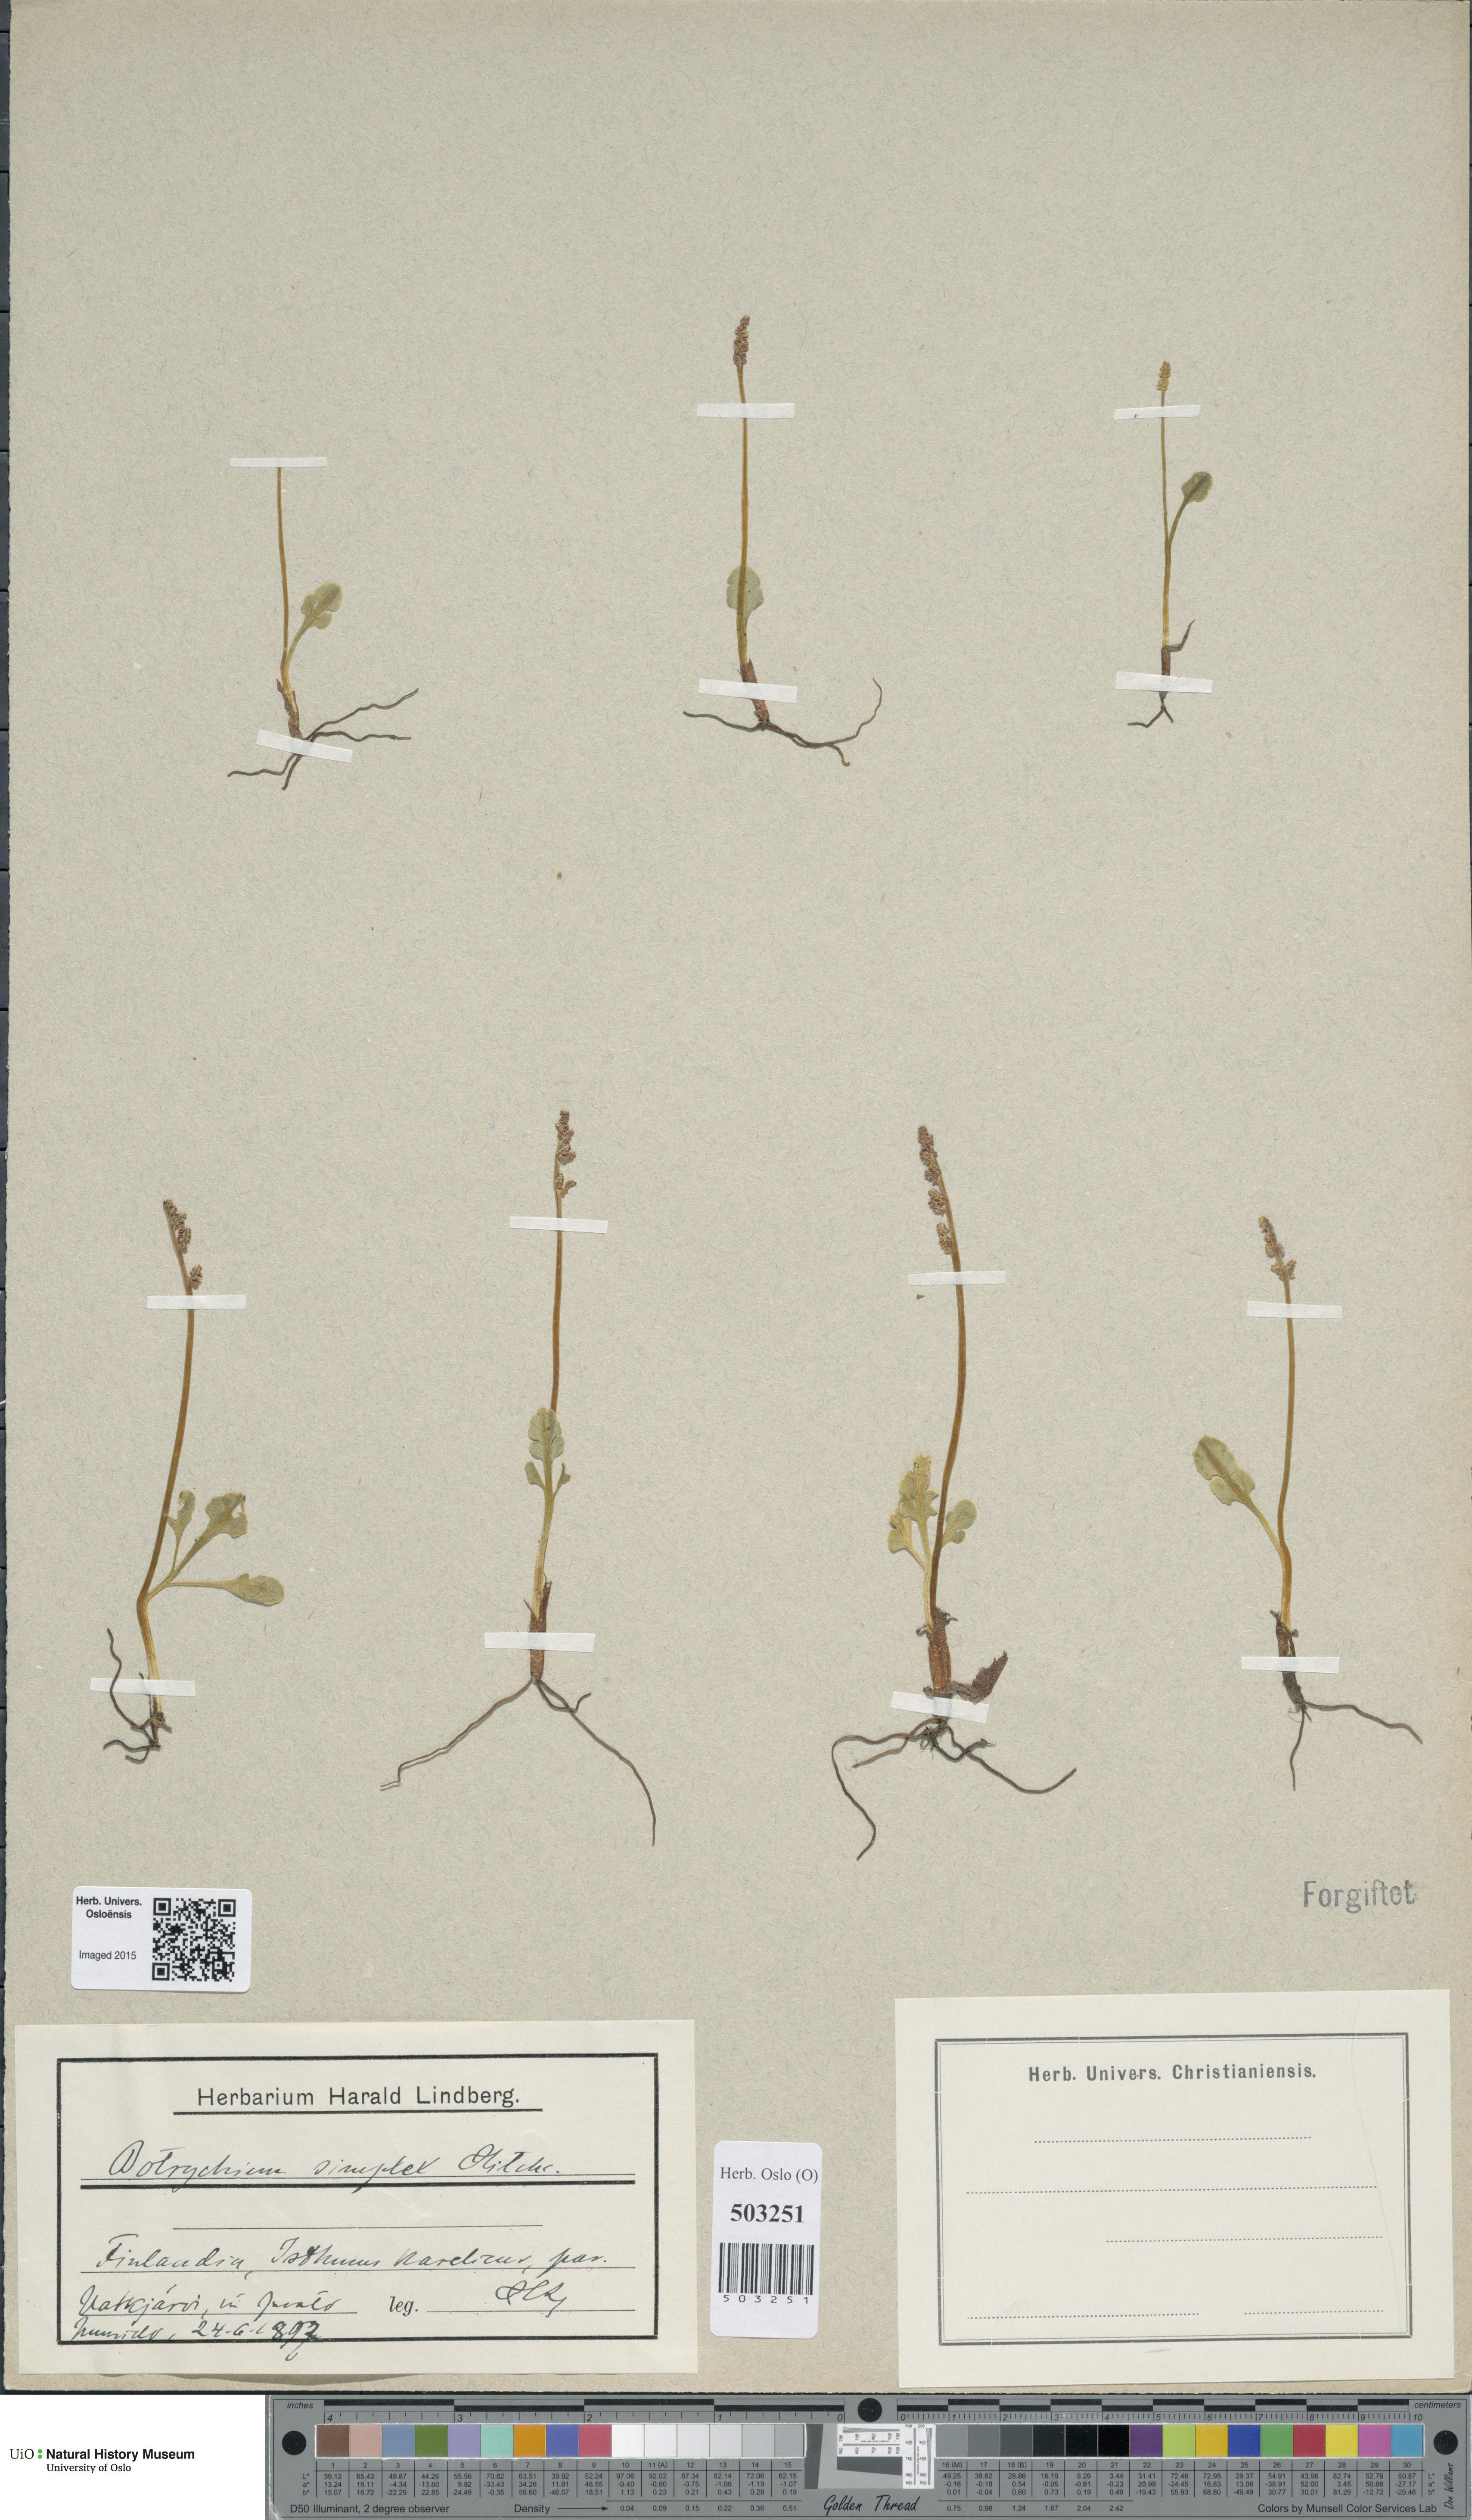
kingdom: Plantae
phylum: Tracheophyta
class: Polypodiopsida
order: Ophioglossales
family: Ophioglossaceae
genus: Botrychium
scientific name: Botrychium simplex
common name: Least moonwort
